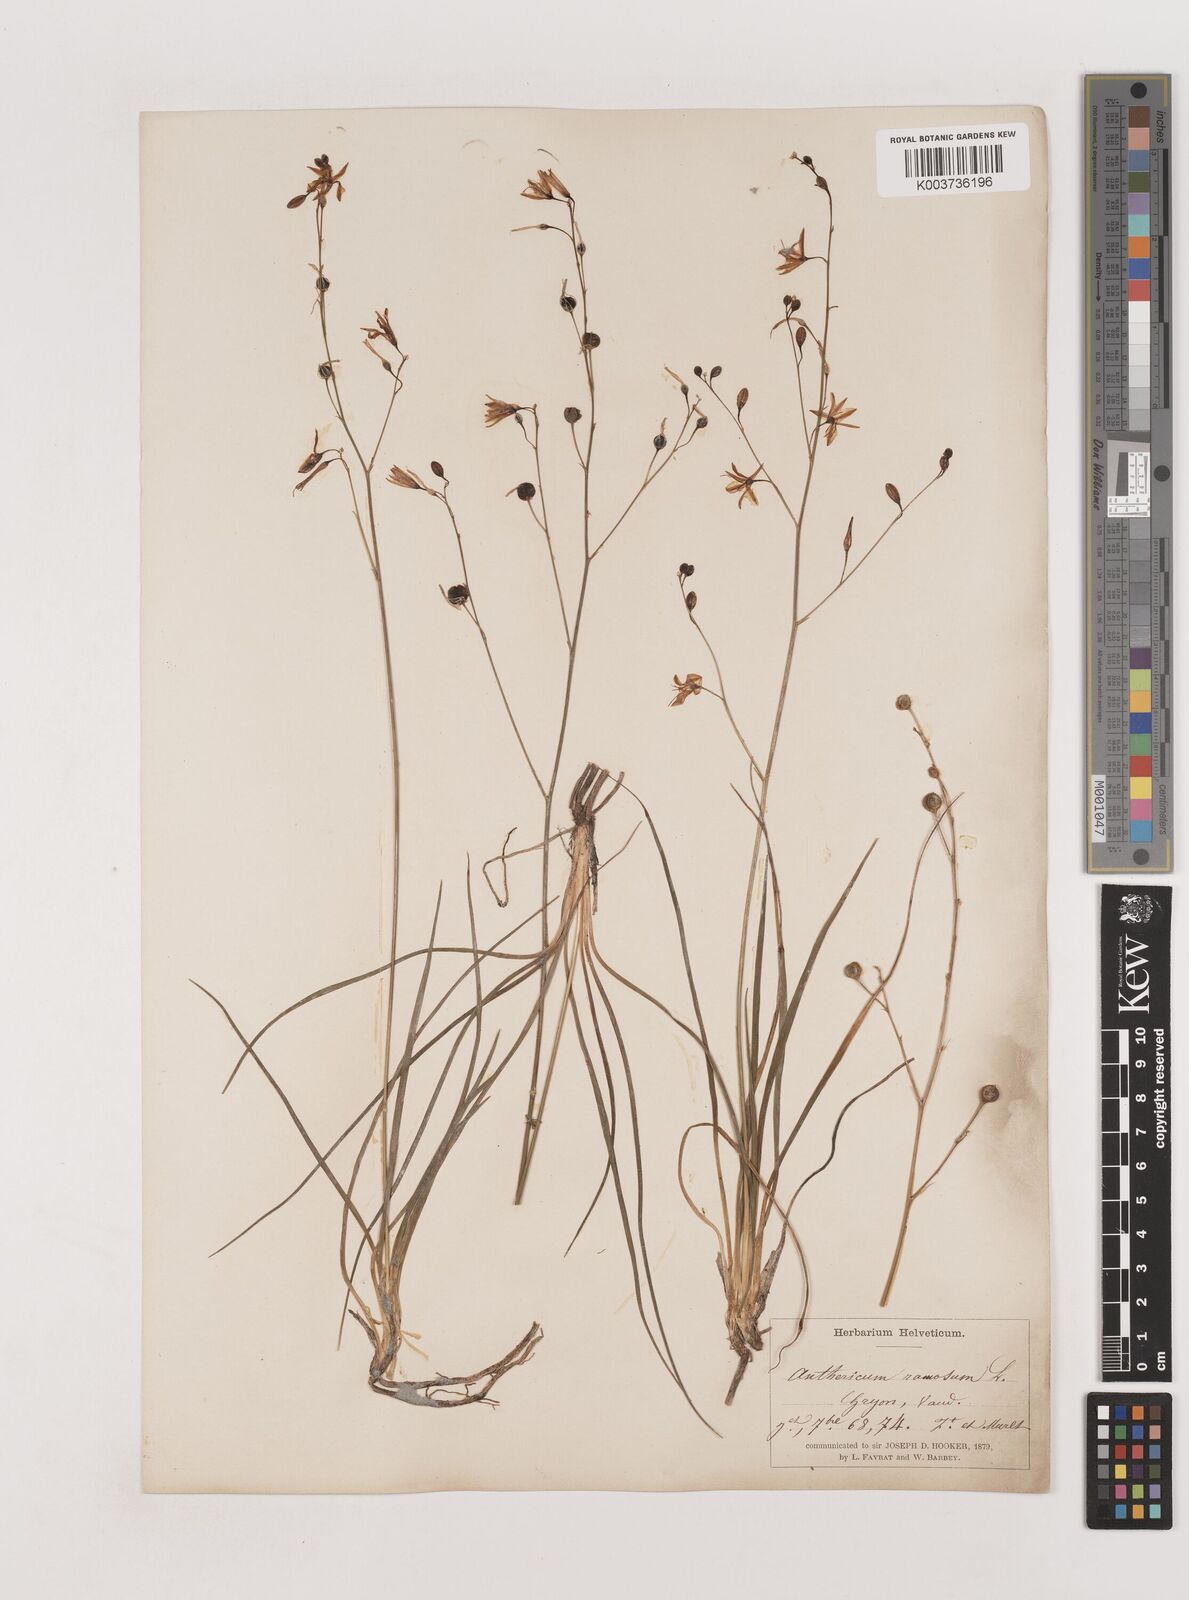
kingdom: Plantae
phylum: Tracheophyta
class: Liliopsida
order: Asparagales
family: Asparagaceae
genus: Anthericum
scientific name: Anthericum ramosum
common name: Branched st. bernard's-lily
